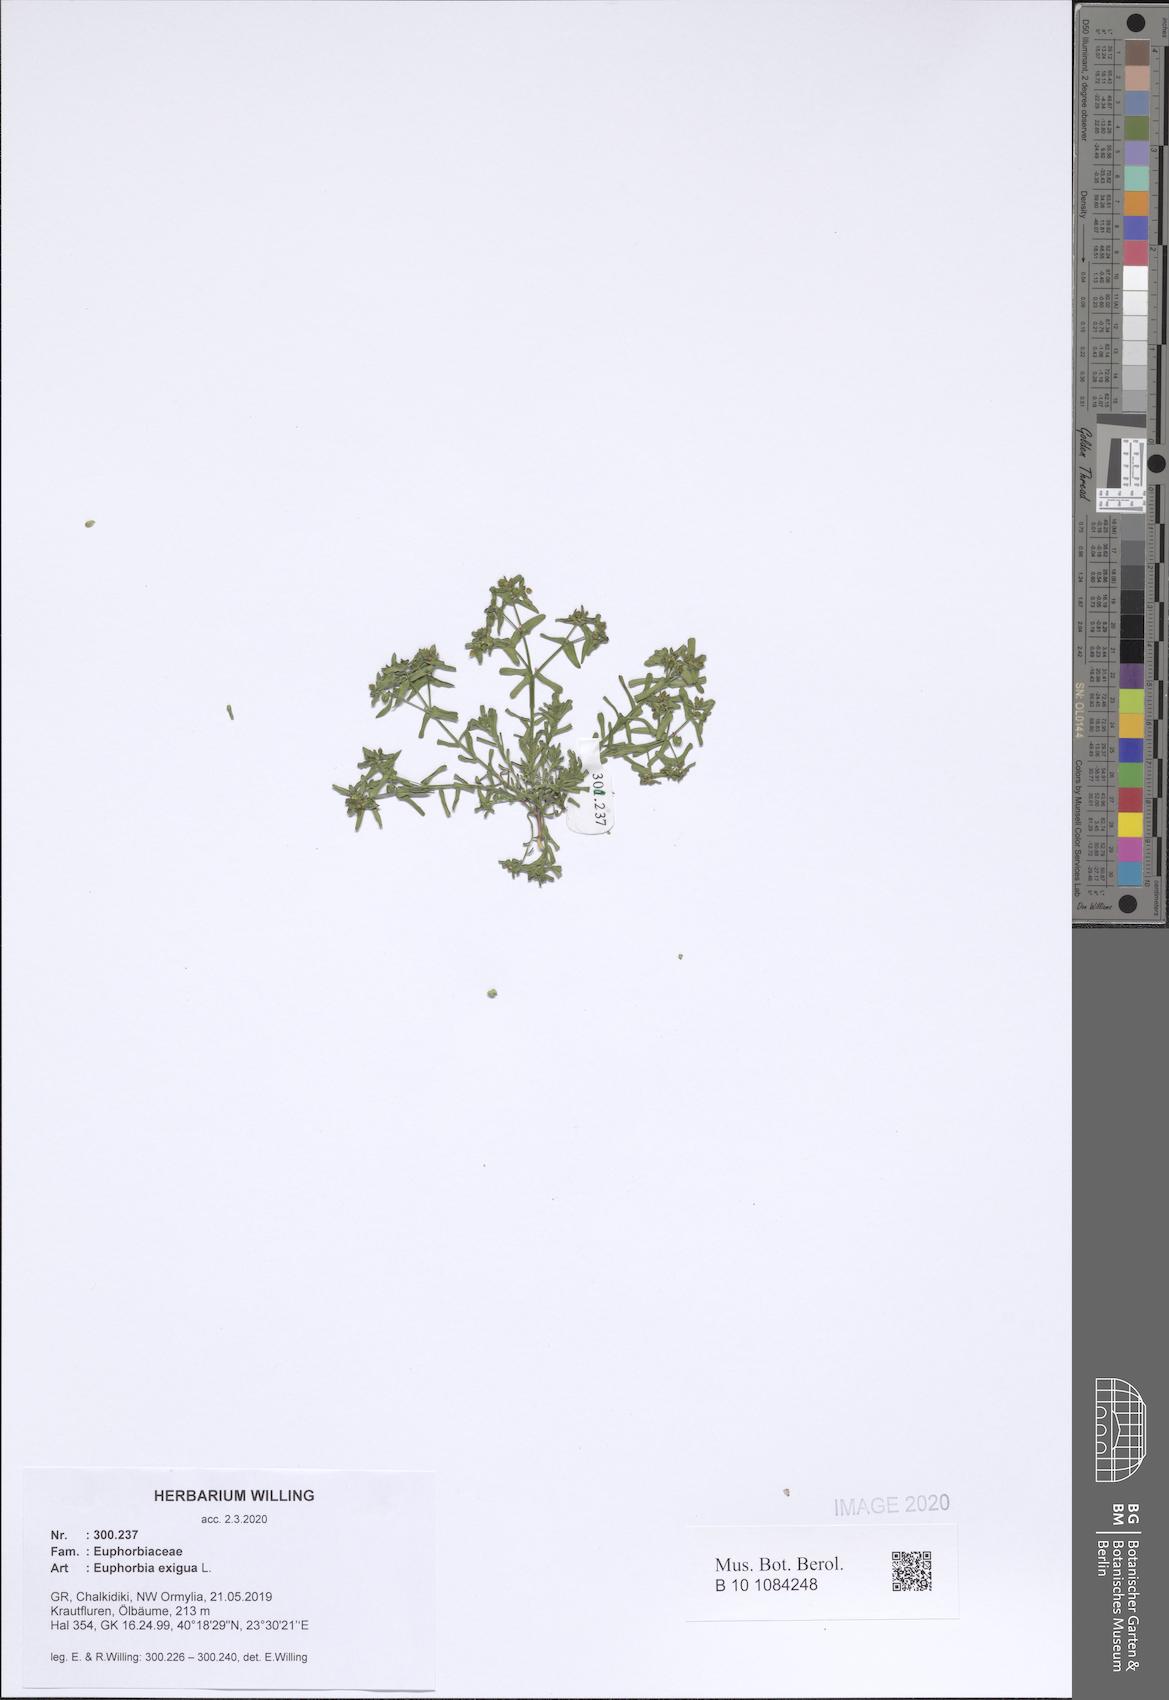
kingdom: Plantae
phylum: Tracheophyta
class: Magnoliopsida
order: Malpighiales
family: Euphorbiaceae
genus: Euphorbia
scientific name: Euphorbia exigua
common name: Dwarf spurge
